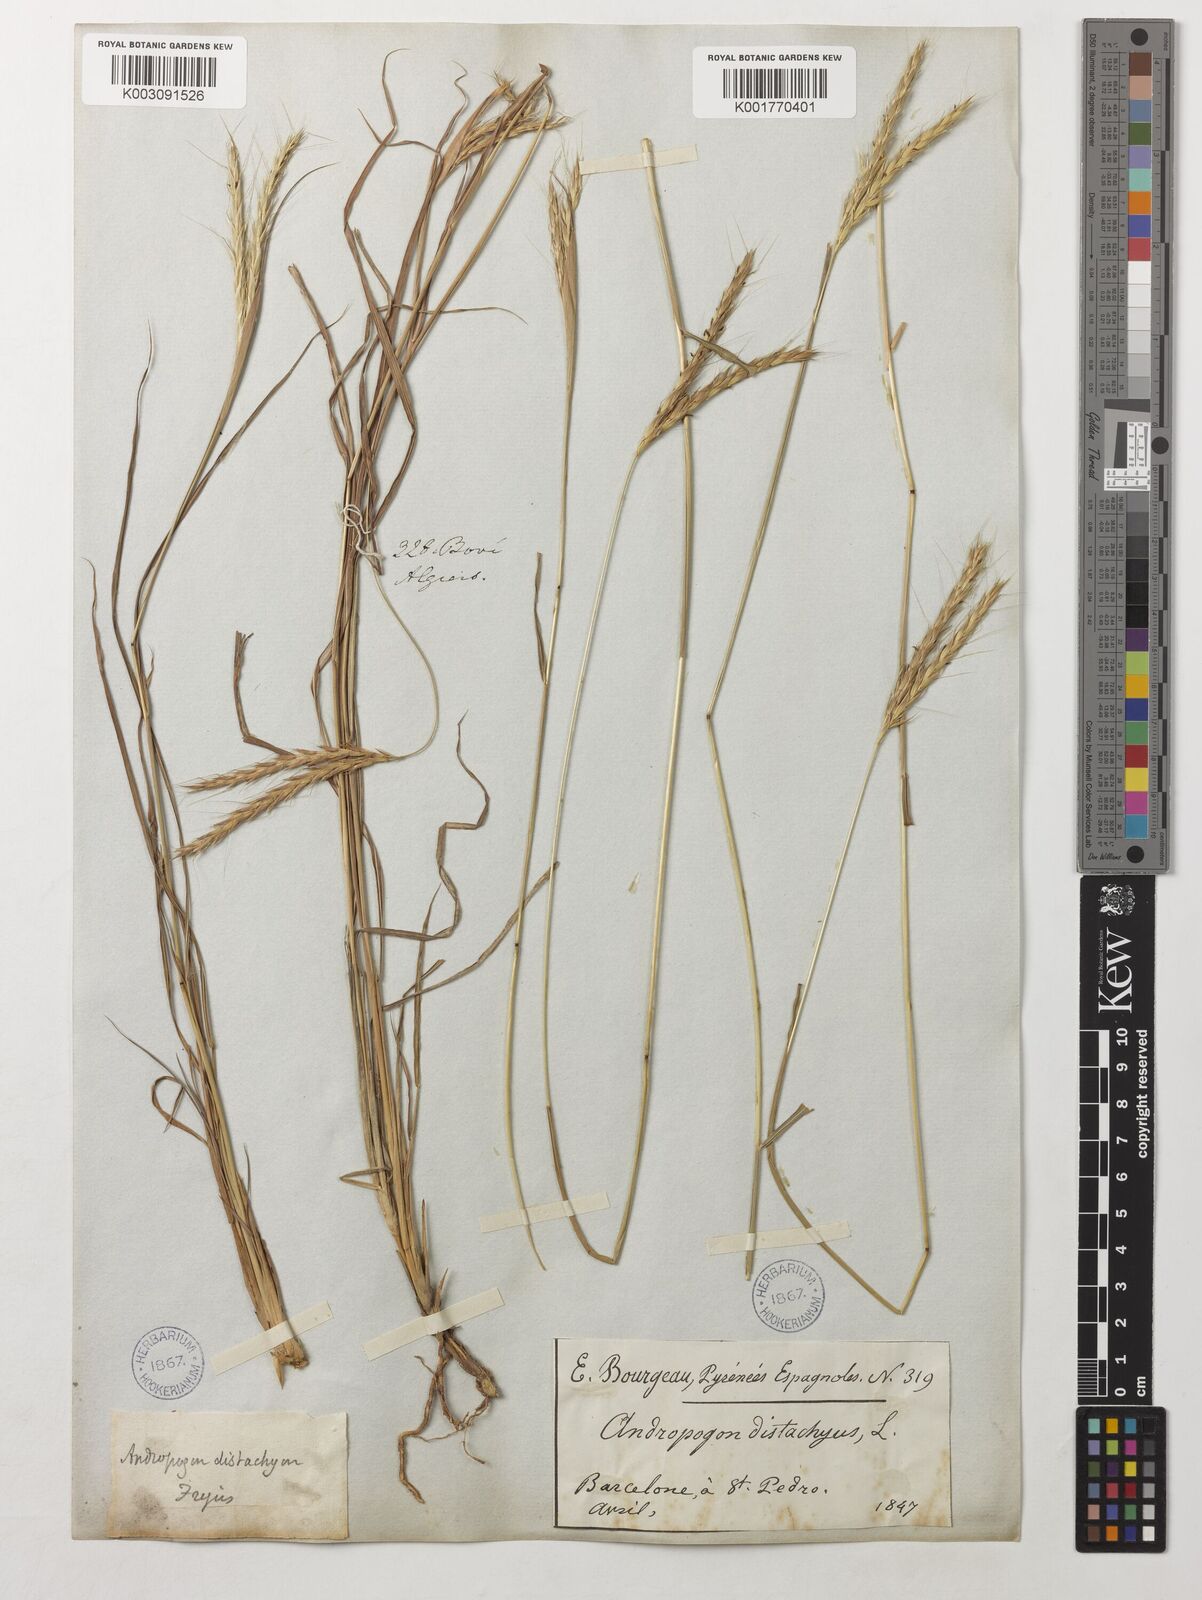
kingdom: Plantae
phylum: Tracheophyta
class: Liliopsida
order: Poales
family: Poaceae
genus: Andropogon
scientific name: Andropogon distachyos
